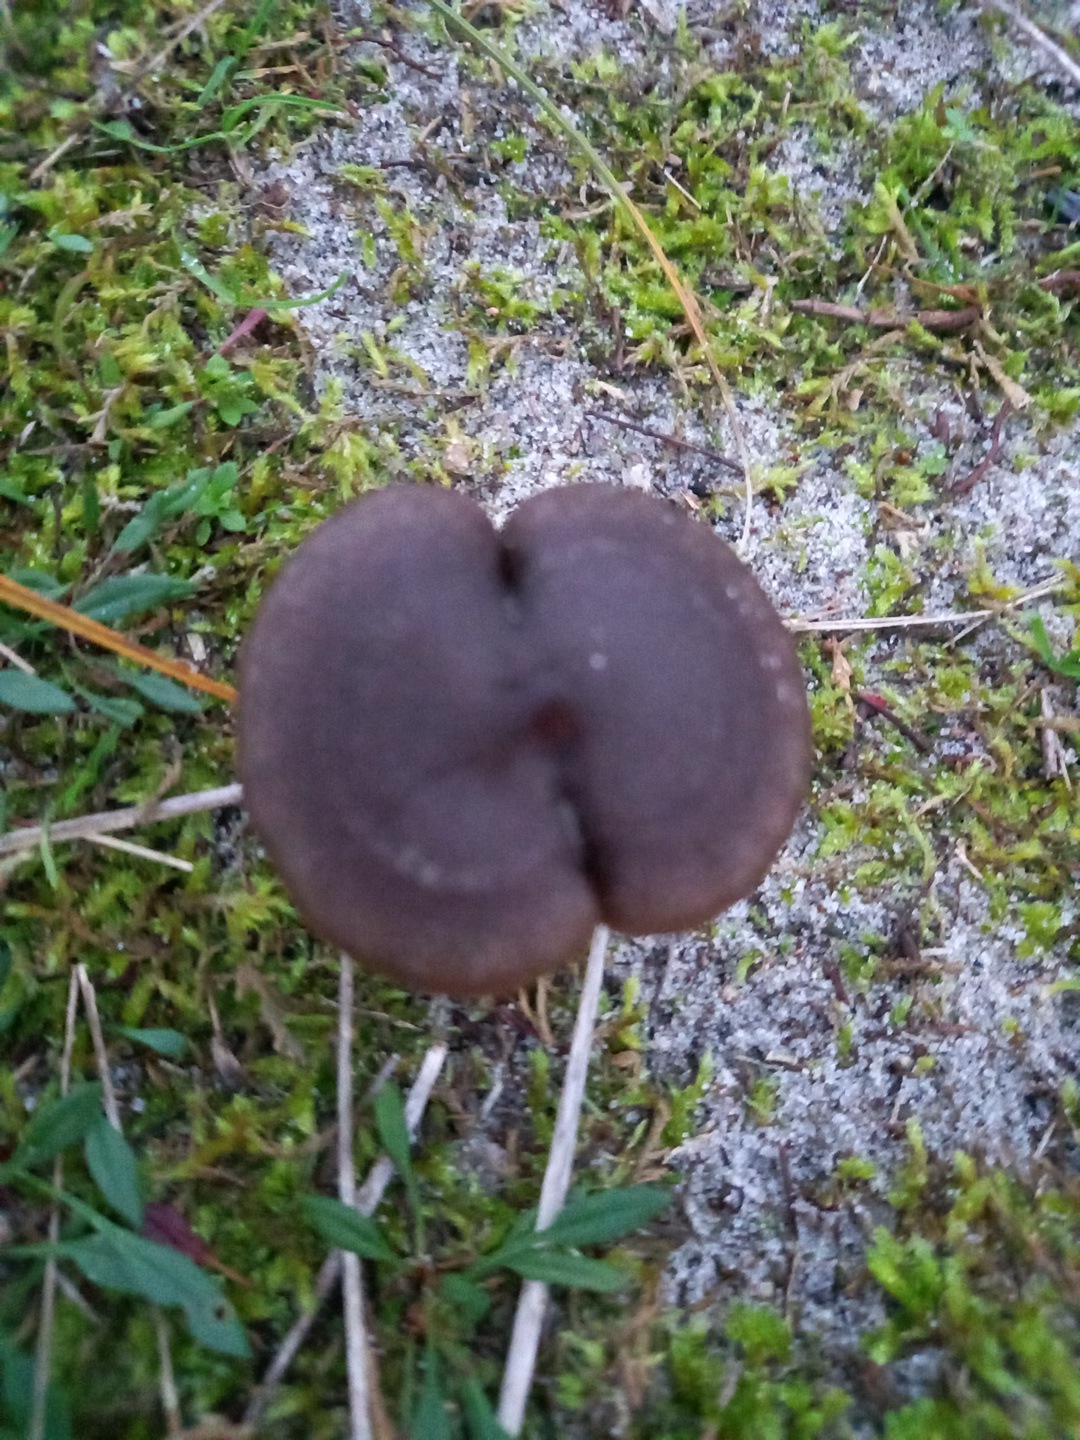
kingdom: Fungi
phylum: Basidiomycota
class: Agaricomycetes
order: Agaricales
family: Entolomataceae
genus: Entoloma
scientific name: Entoloma vindobonense
